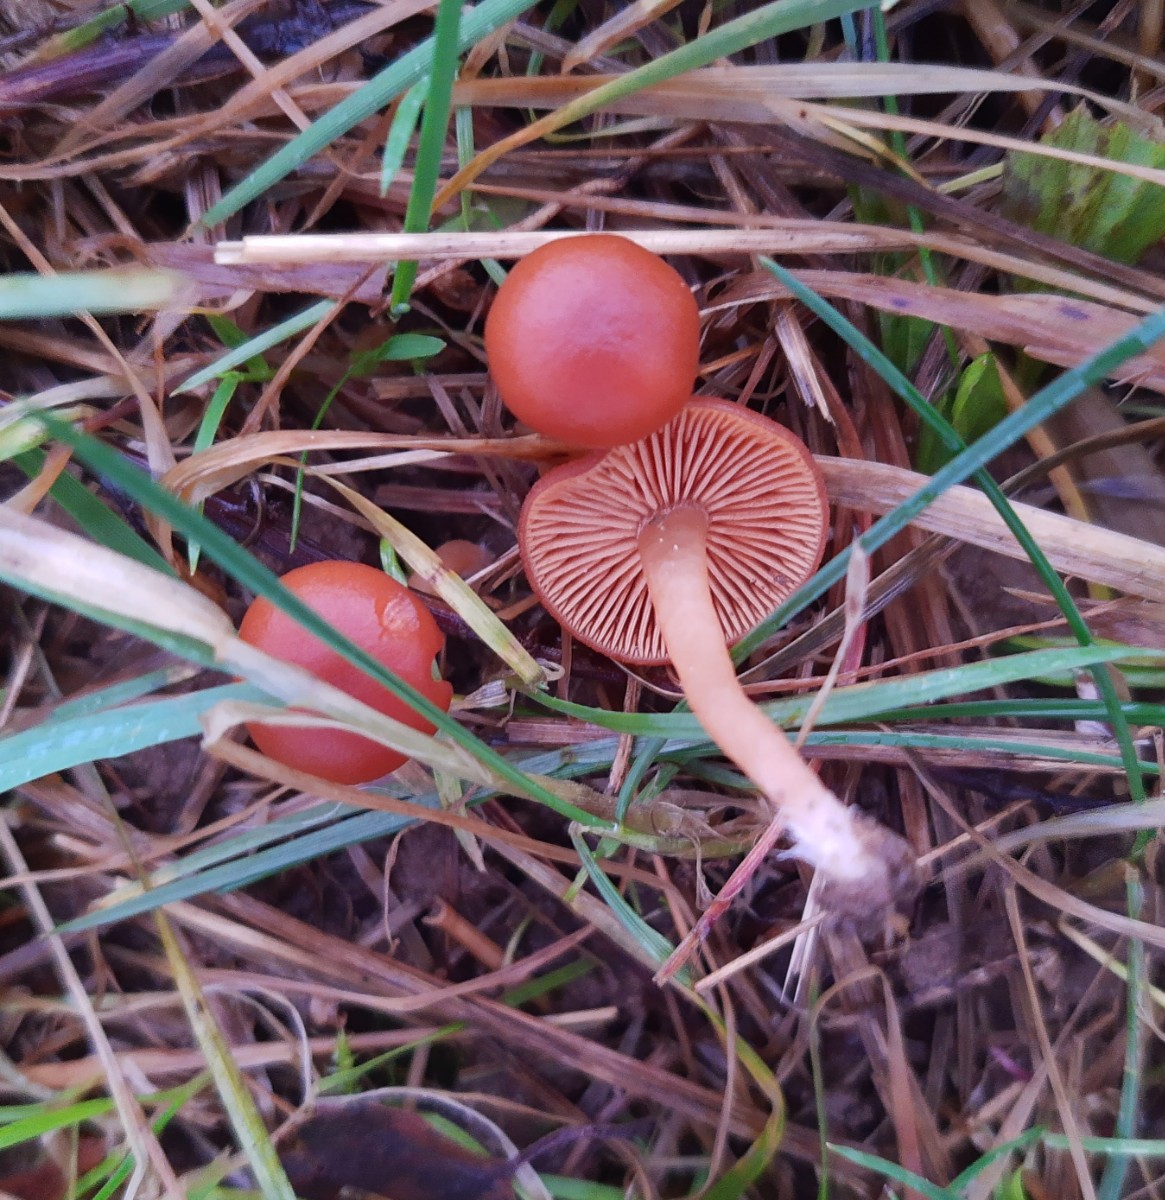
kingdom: Fungi
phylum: Basidiomycota
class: Agaricomycetes
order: Agaricales
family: Tubariaceae
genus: Tubaria
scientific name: Tubaria furfuracea
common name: kliddet fnughat
